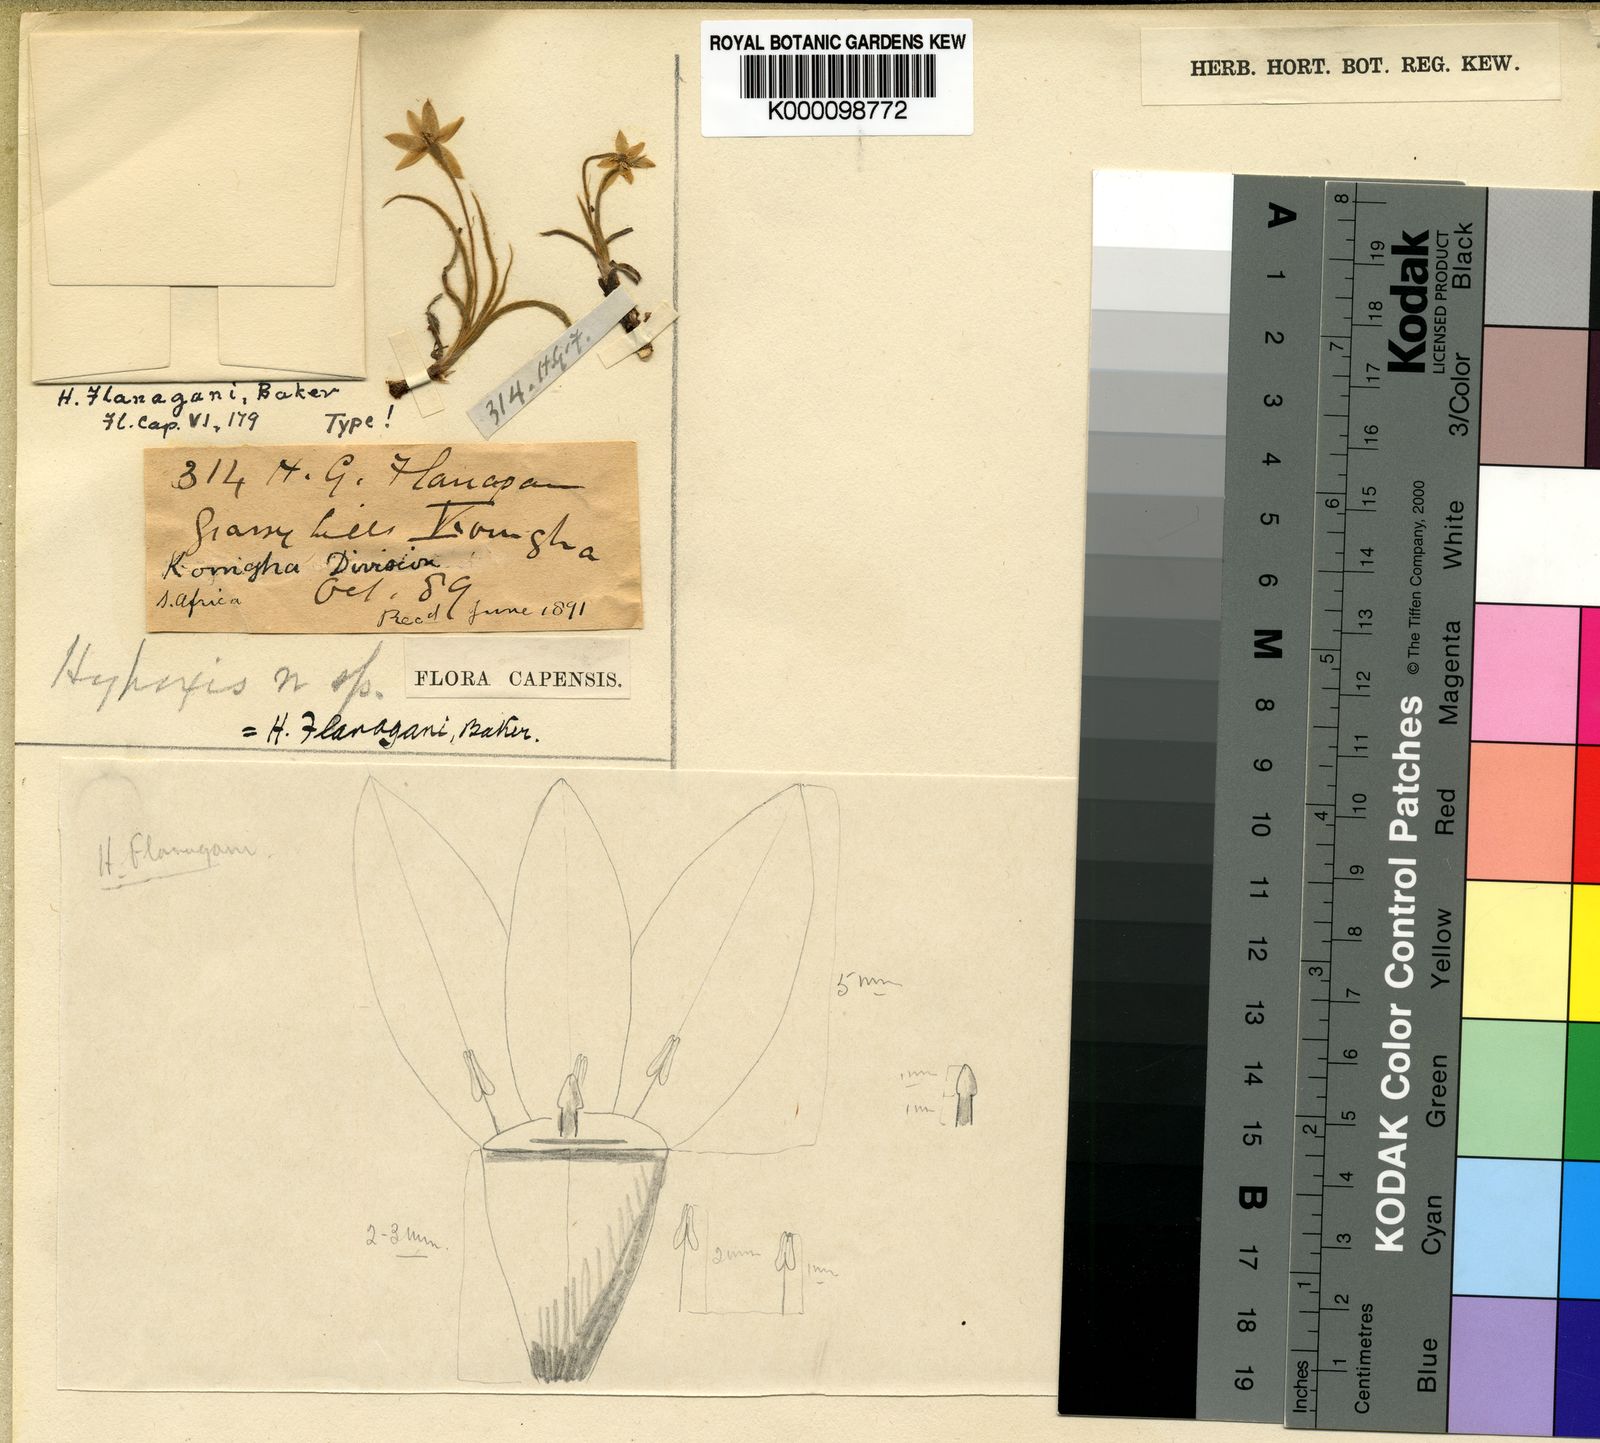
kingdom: Plantae
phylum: Tracheophyta
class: Liliopsida
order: Asparagales
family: Hypoxidaceae
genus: Hypoxis
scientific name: Hypoxis flanaganii
